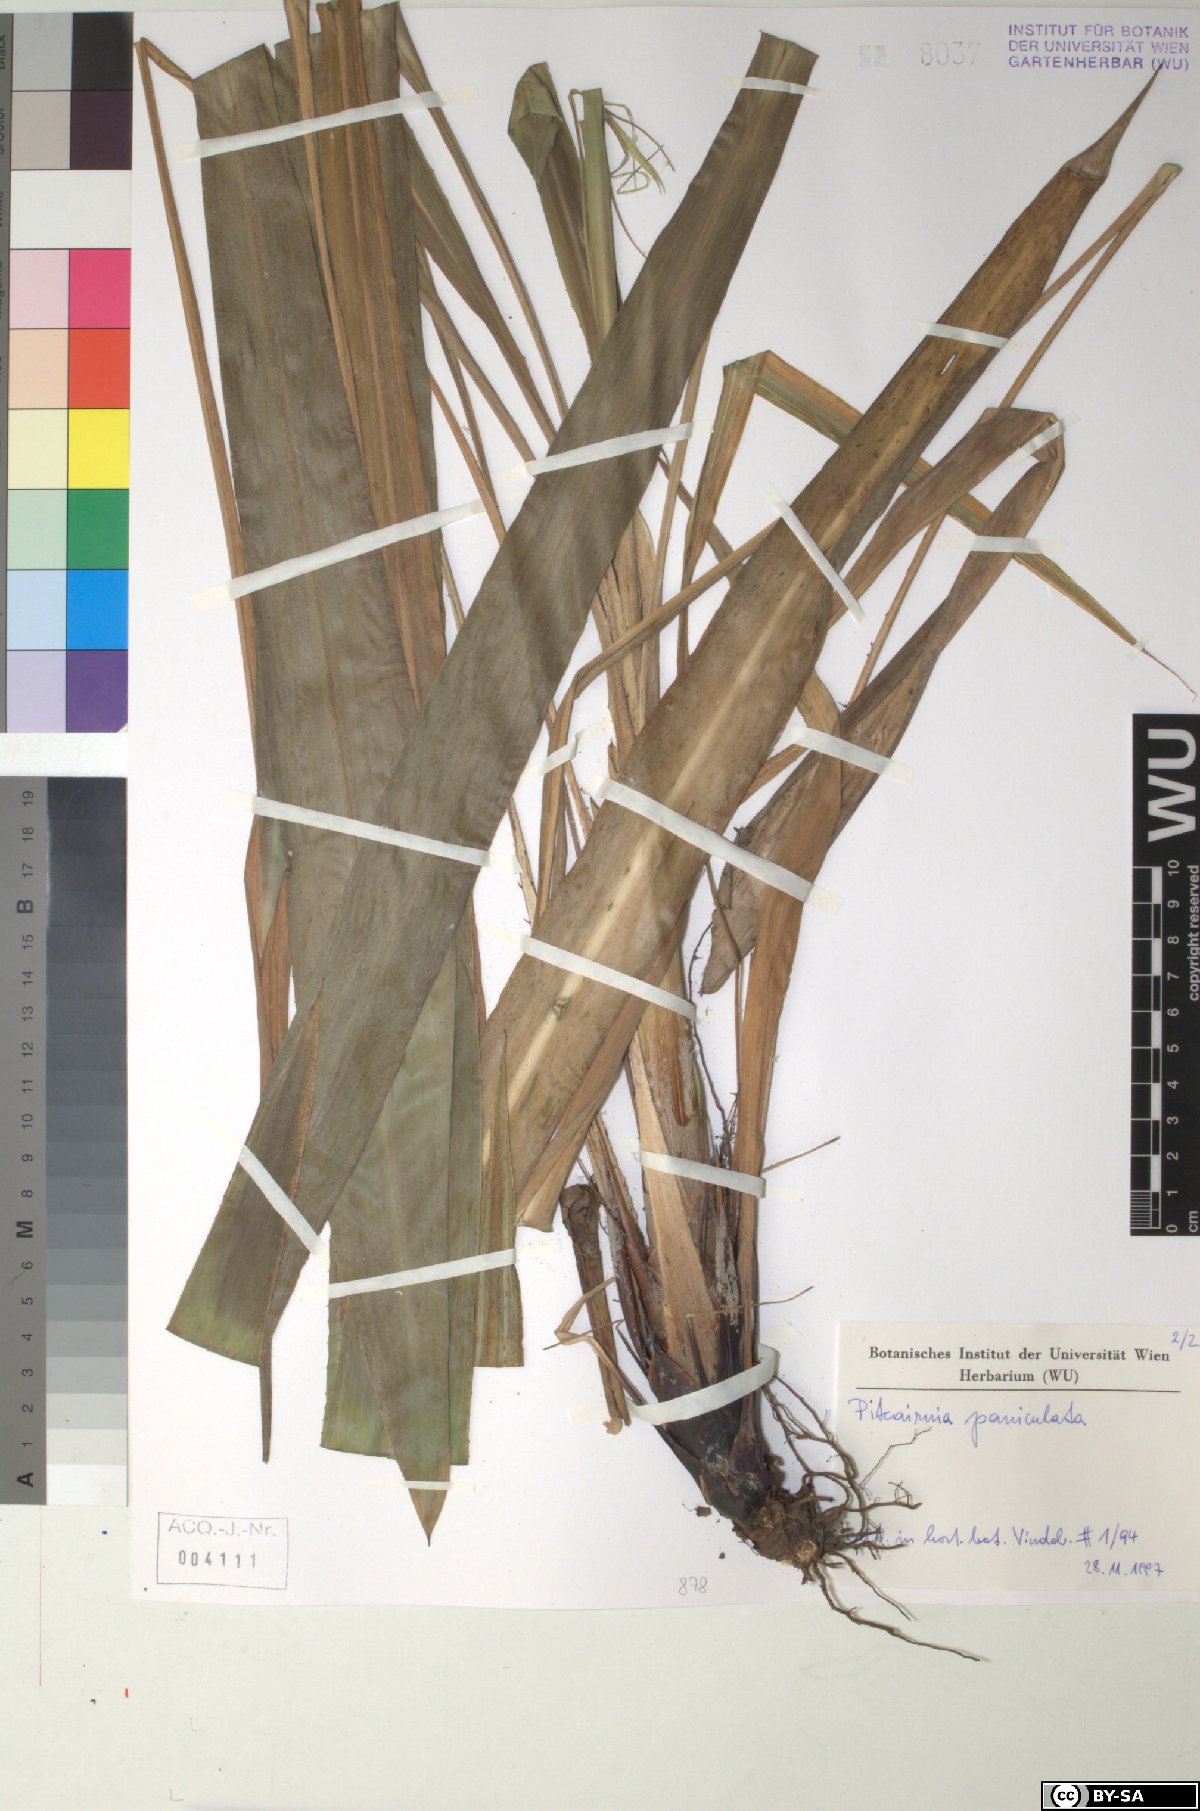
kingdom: Plantae
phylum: Tracheophyta
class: Liliopsida
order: Poales
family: Bromeliaceae
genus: Pitcairnia
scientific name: Pitcairnia paniculata
